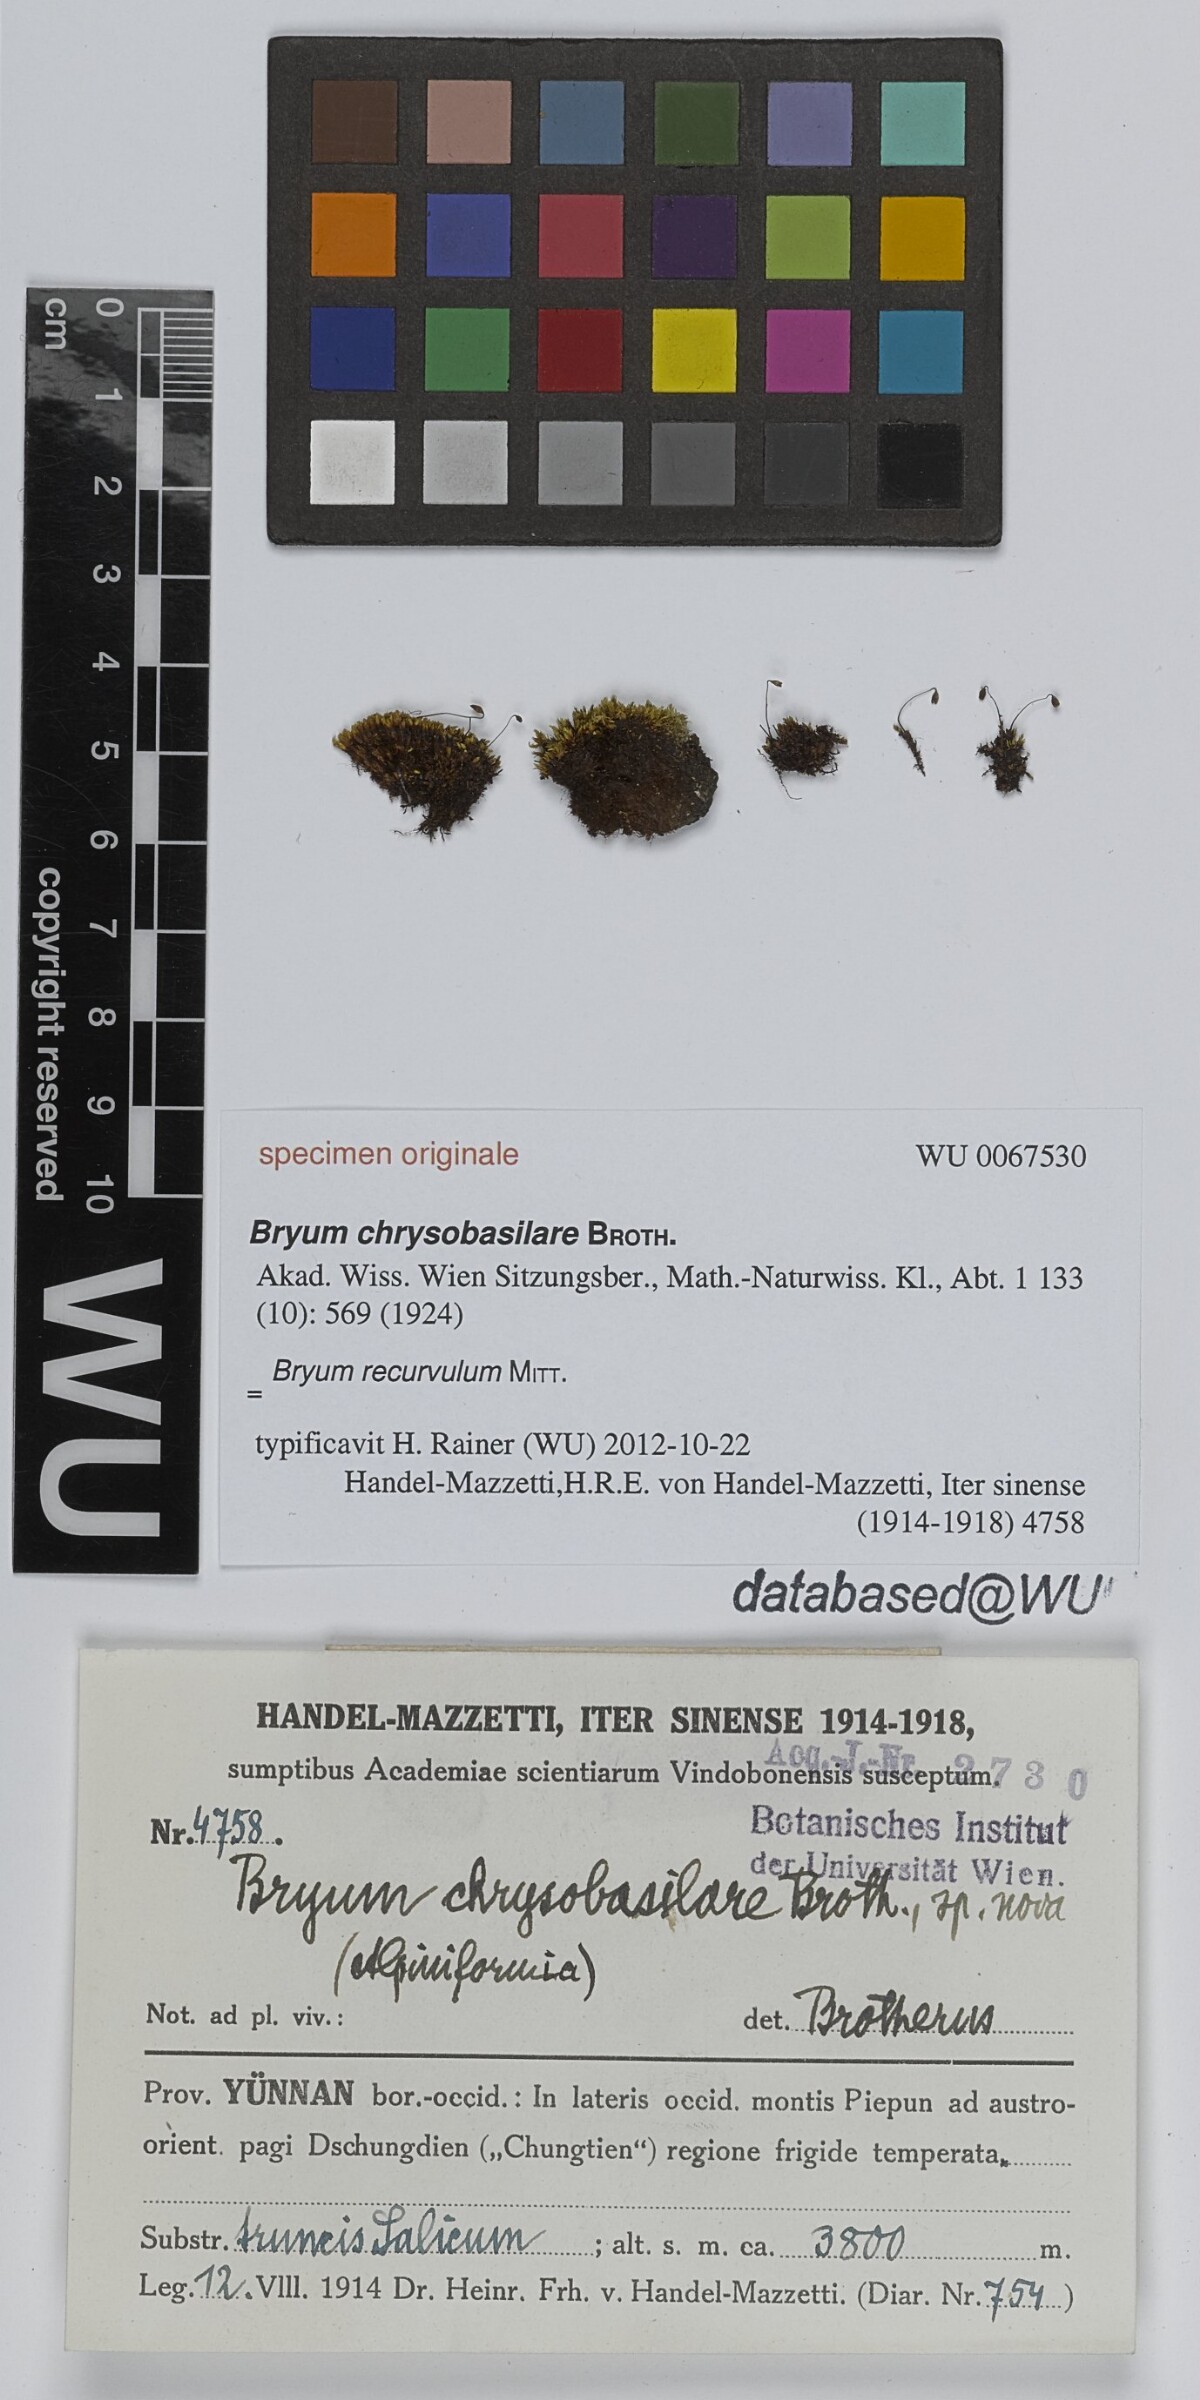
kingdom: Plantae
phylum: Bryophyta
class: Bryopsida
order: Bryales
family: Bryaceae
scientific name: Bryaceae
